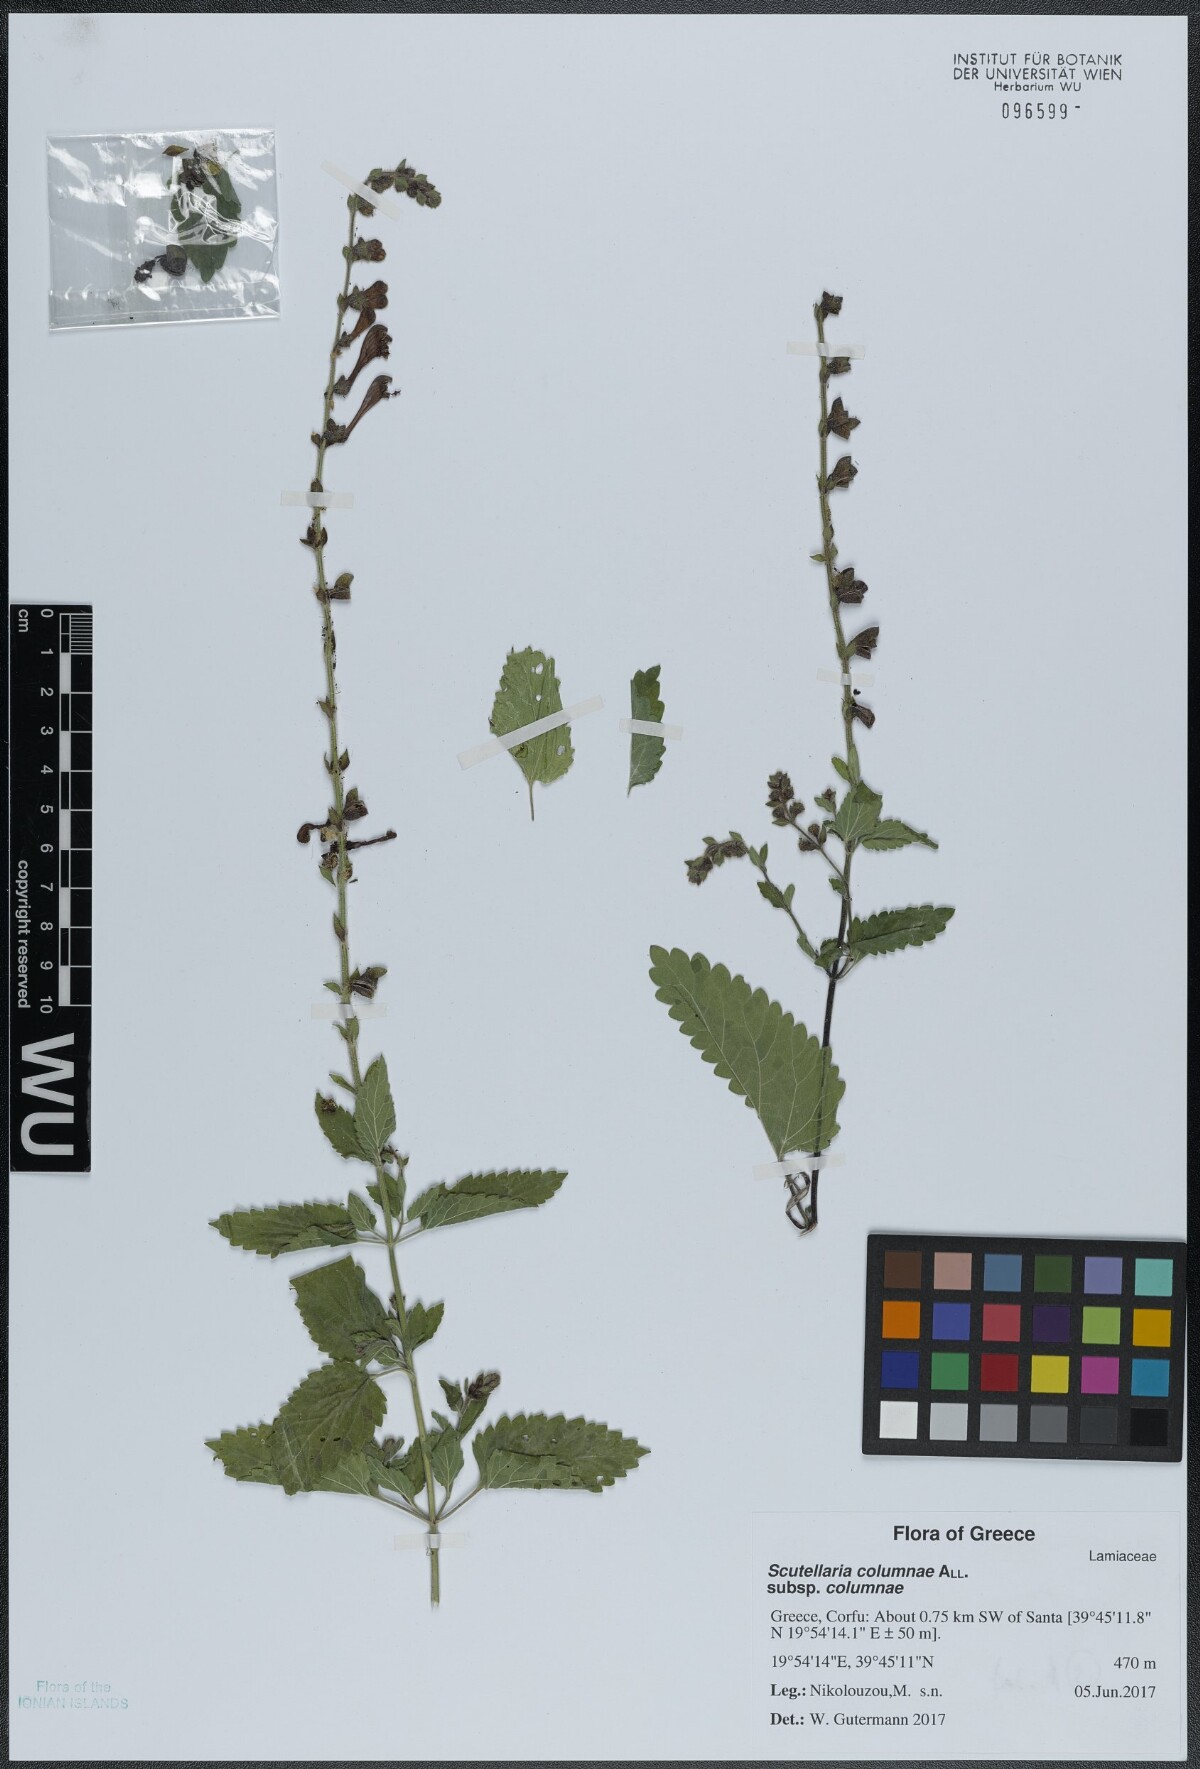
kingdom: Plantae
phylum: Tracheophyta
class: Magnoliopsida
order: Lamiales
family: Lamiaceae
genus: Scutellaria
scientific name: Scutellaria columnae
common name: Large skullcap
